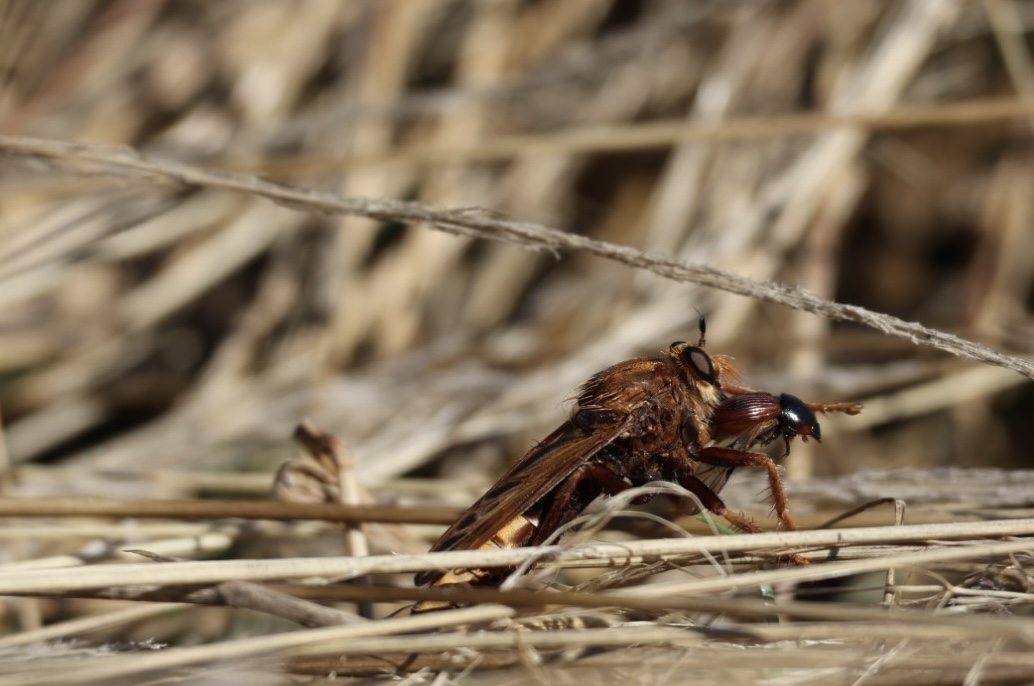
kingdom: Animalia
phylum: Arthropoda
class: Insecta
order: Coleoptera
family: Scarabaeidae
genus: Aphodius
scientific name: Aphodius
